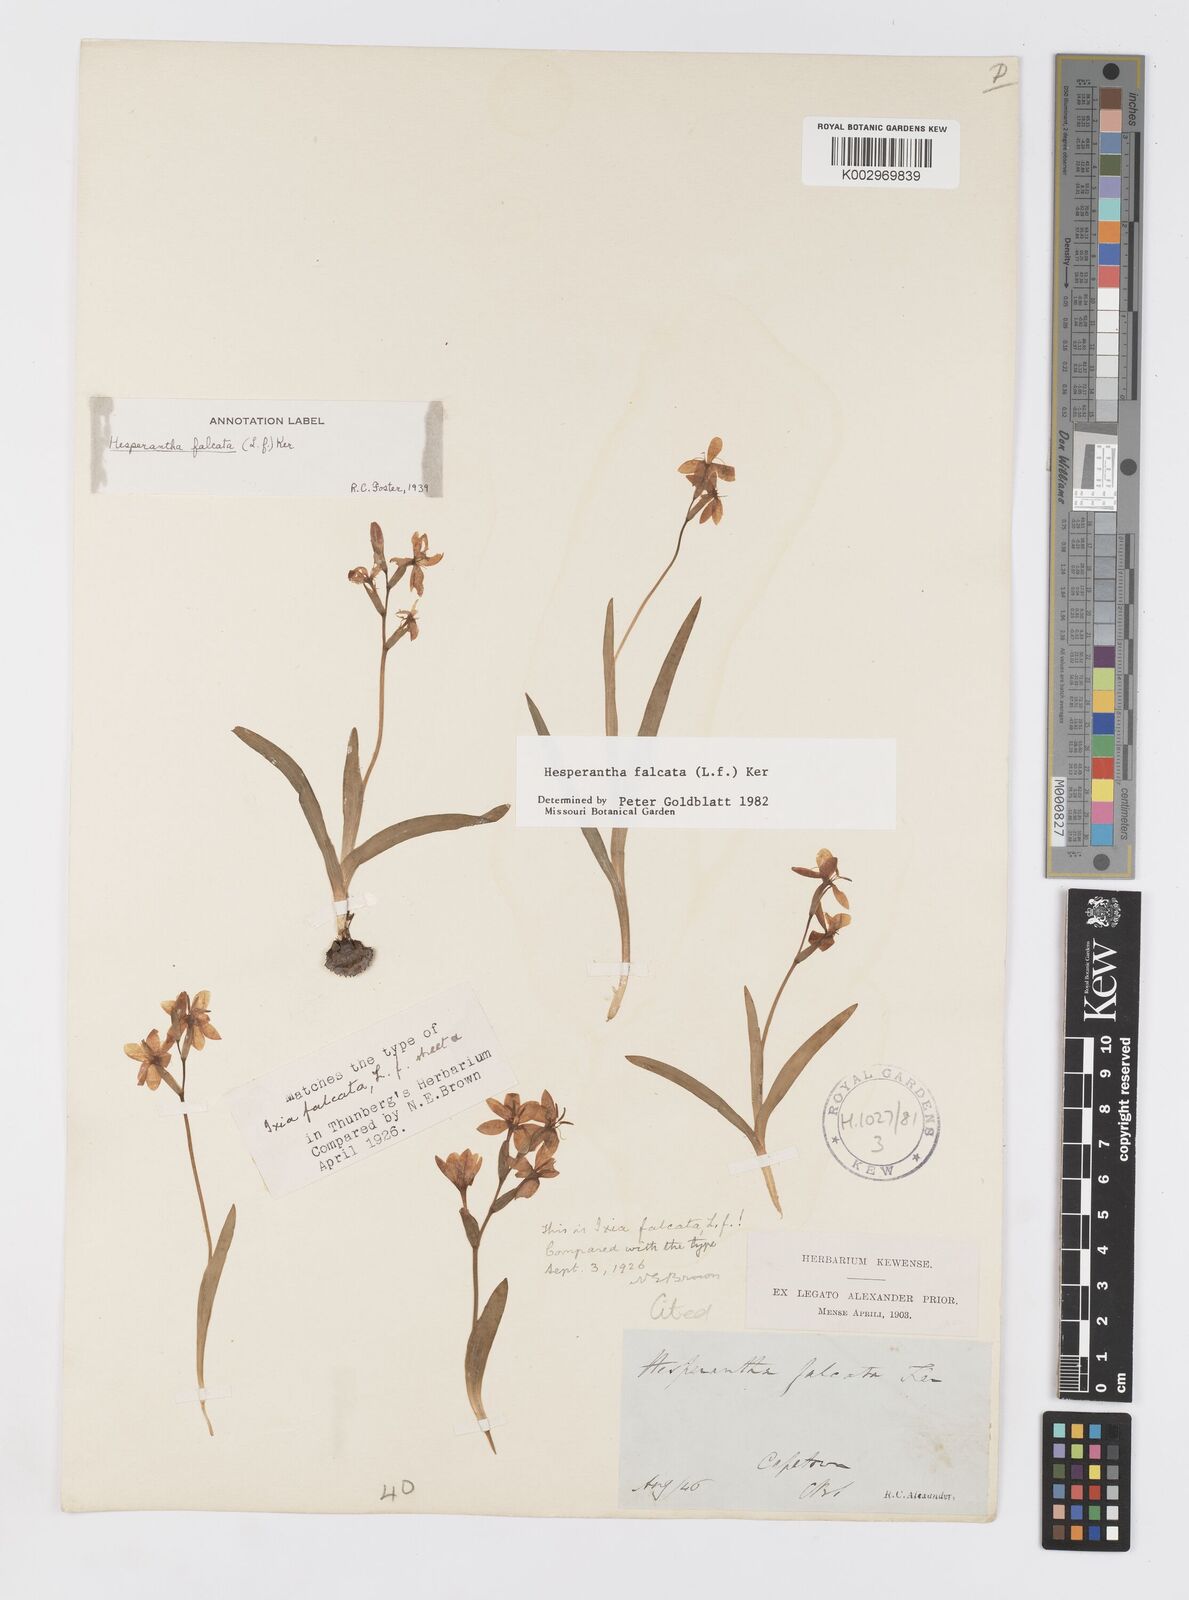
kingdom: Plantae
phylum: Tracheophyta
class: Liliopsida
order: Asparagales
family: Iridaceae
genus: Hesperantha
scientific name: Hesperantha falcata
